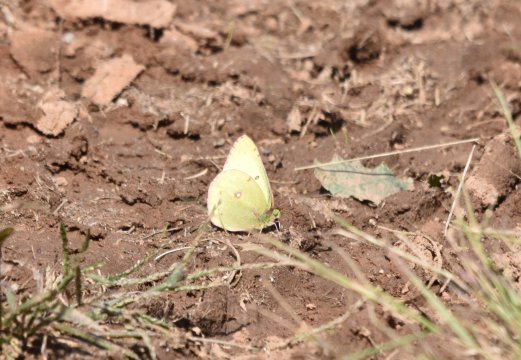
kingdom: Animalia
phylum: Arthropoda
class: Insecta
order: Lepidoptera
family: Pieridae
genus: Colias
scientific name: Colias philodice
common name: Clouded Sulphur
